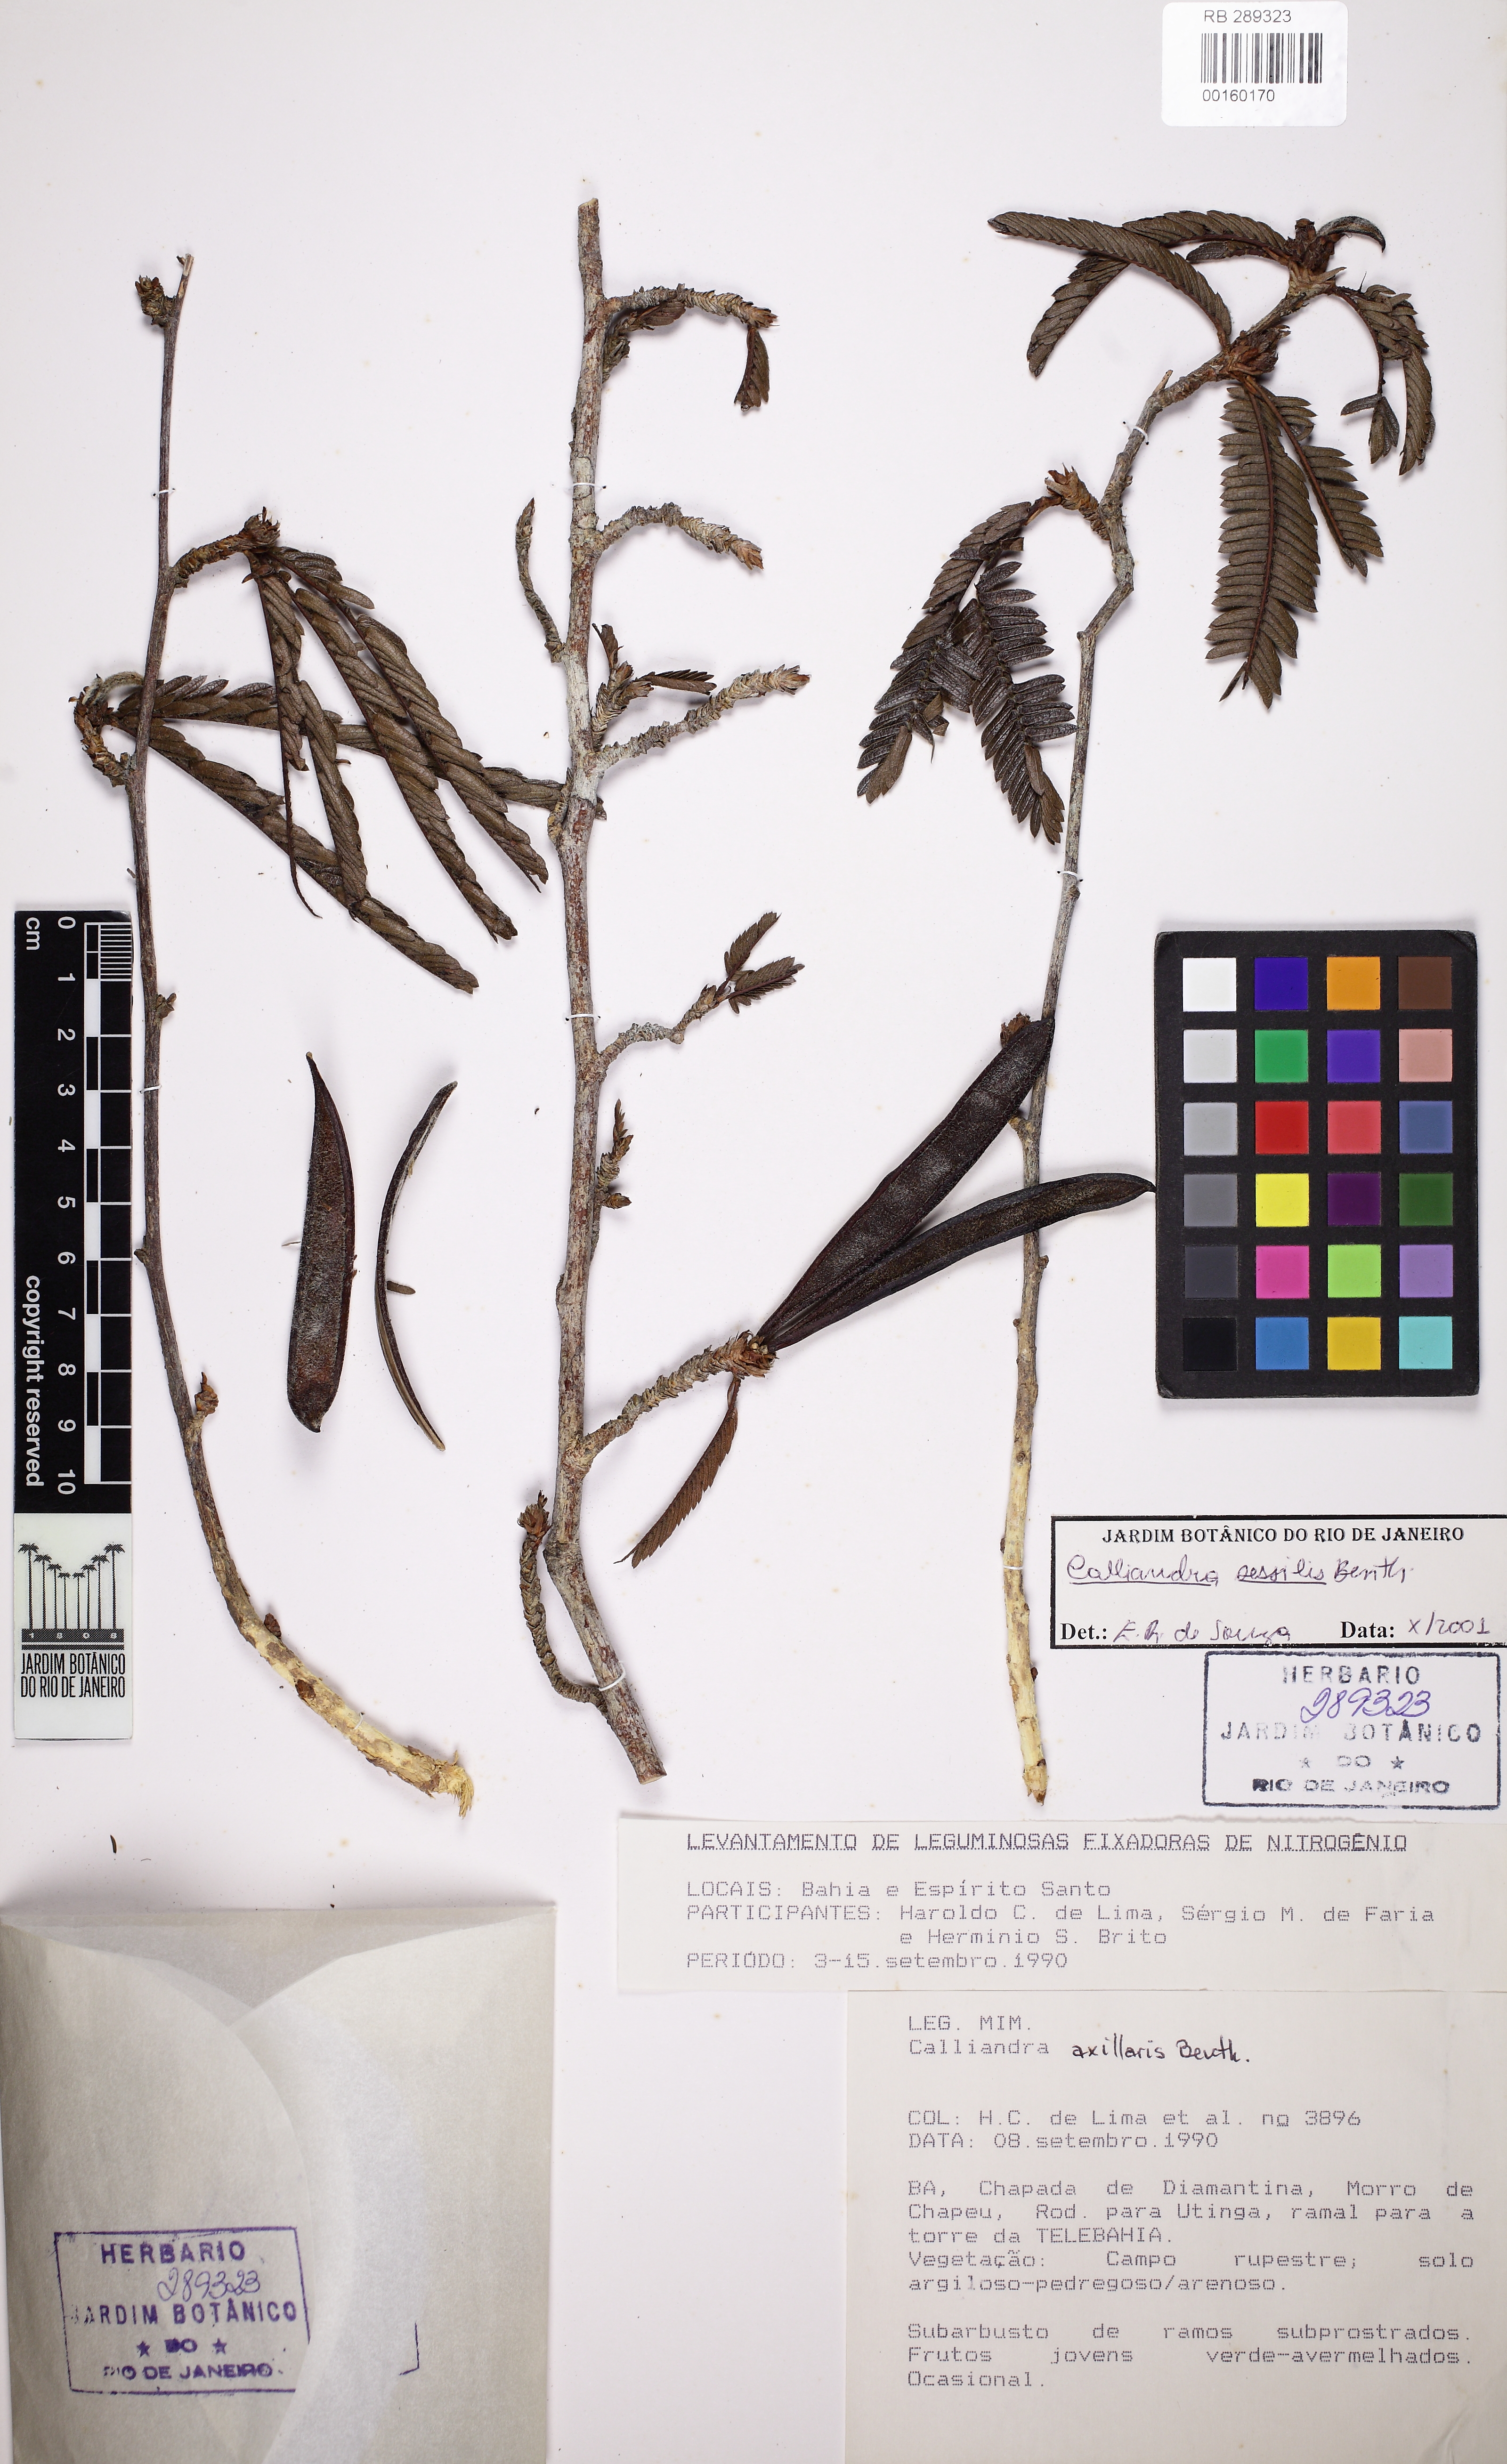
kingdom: Plantae
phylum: Tracheophyta
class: Magnoliopsida
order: Fabales
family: Fabaceae
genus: Calliandra
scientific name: Calliandra sessilis
